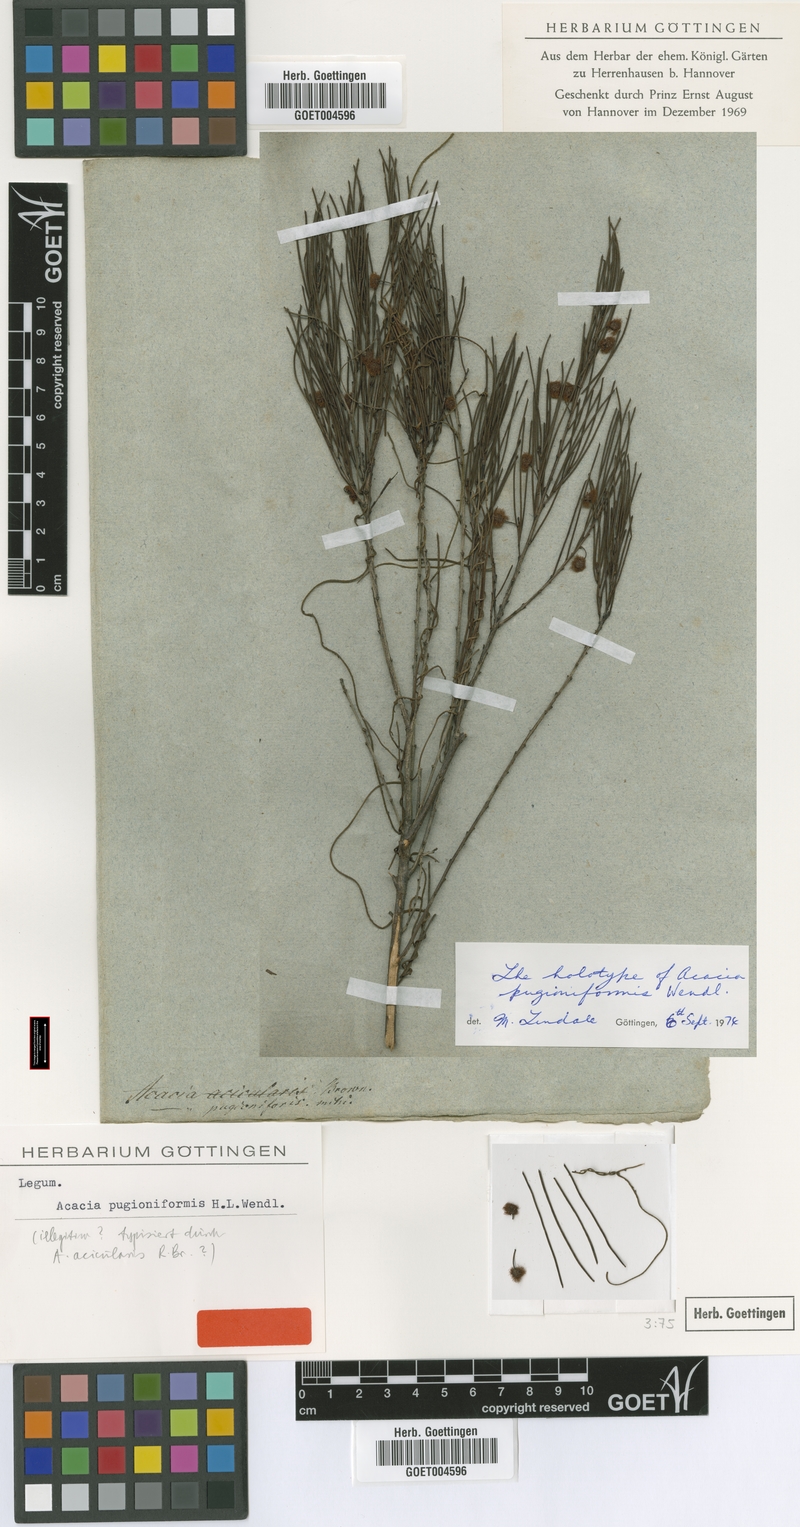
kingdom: Plantae
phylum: Tracheophyta
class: Magnoliopsida
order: Fabales
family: Fabaceae
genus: Acacia
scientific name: Acacia
